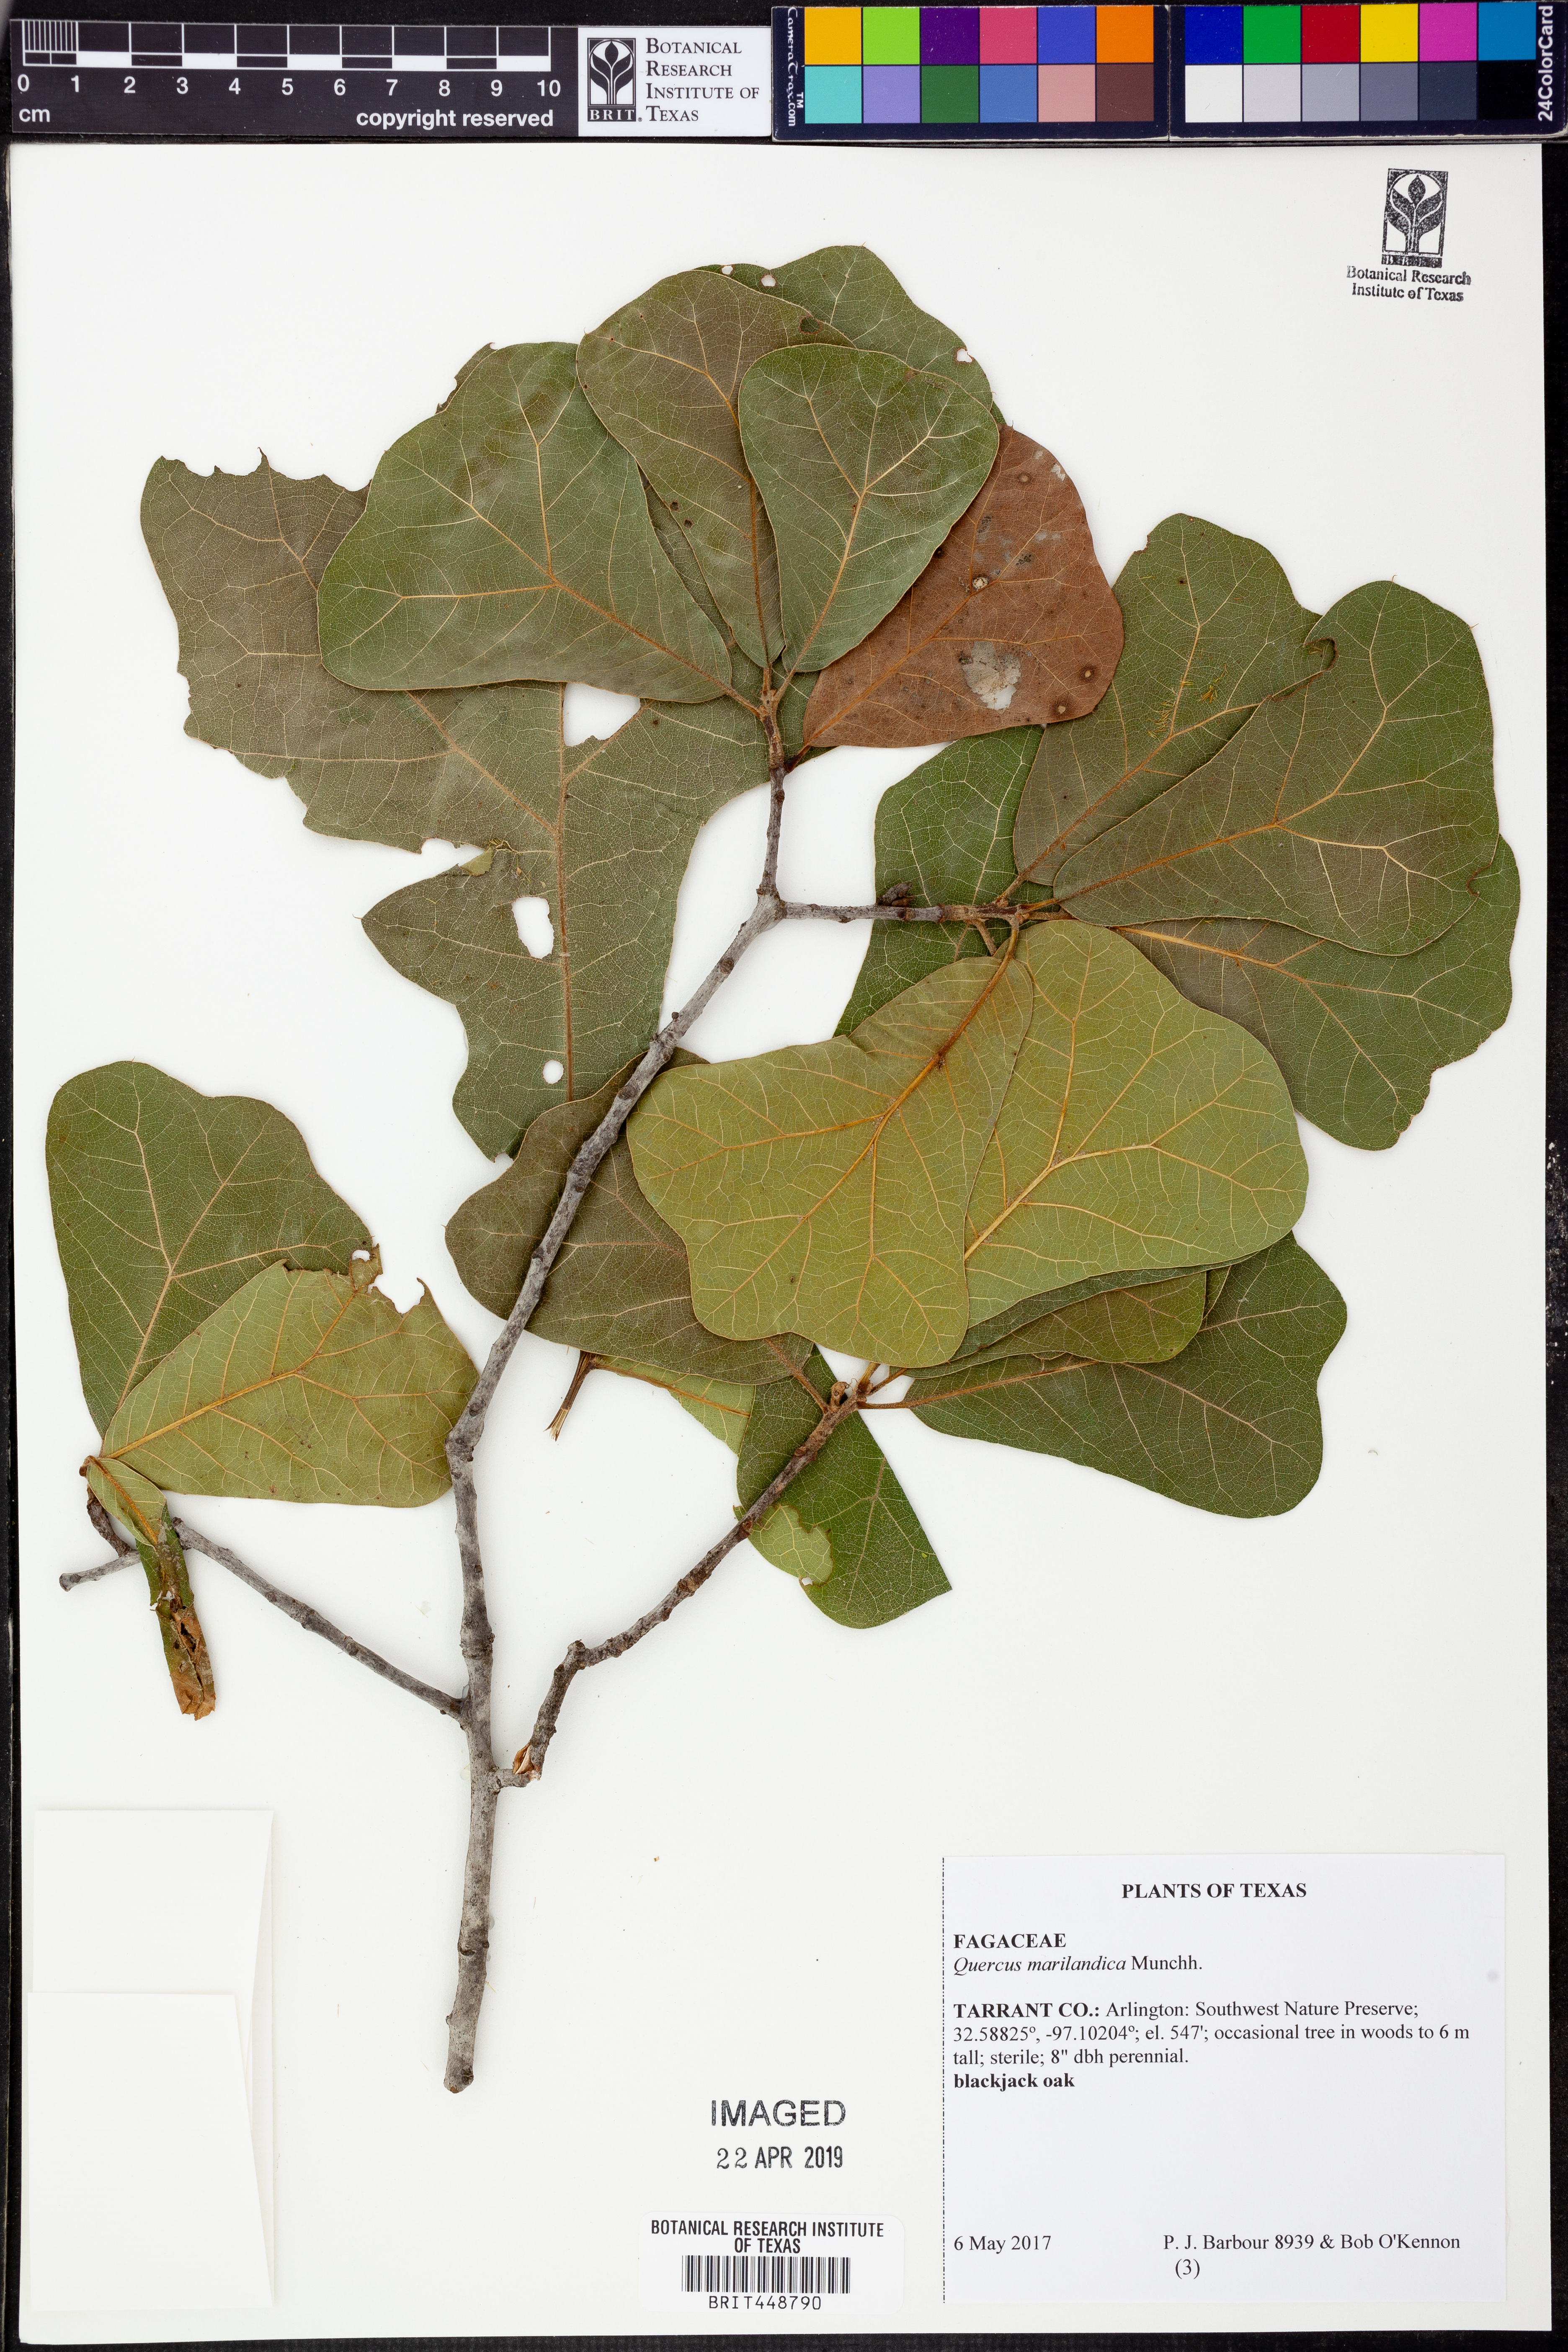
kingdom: Plantae
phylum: Tracheophyta
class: Magnoliopsida
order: Fagales
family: Fagaceae
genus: Quercus
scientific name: Quercus nigra
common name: Water oak
